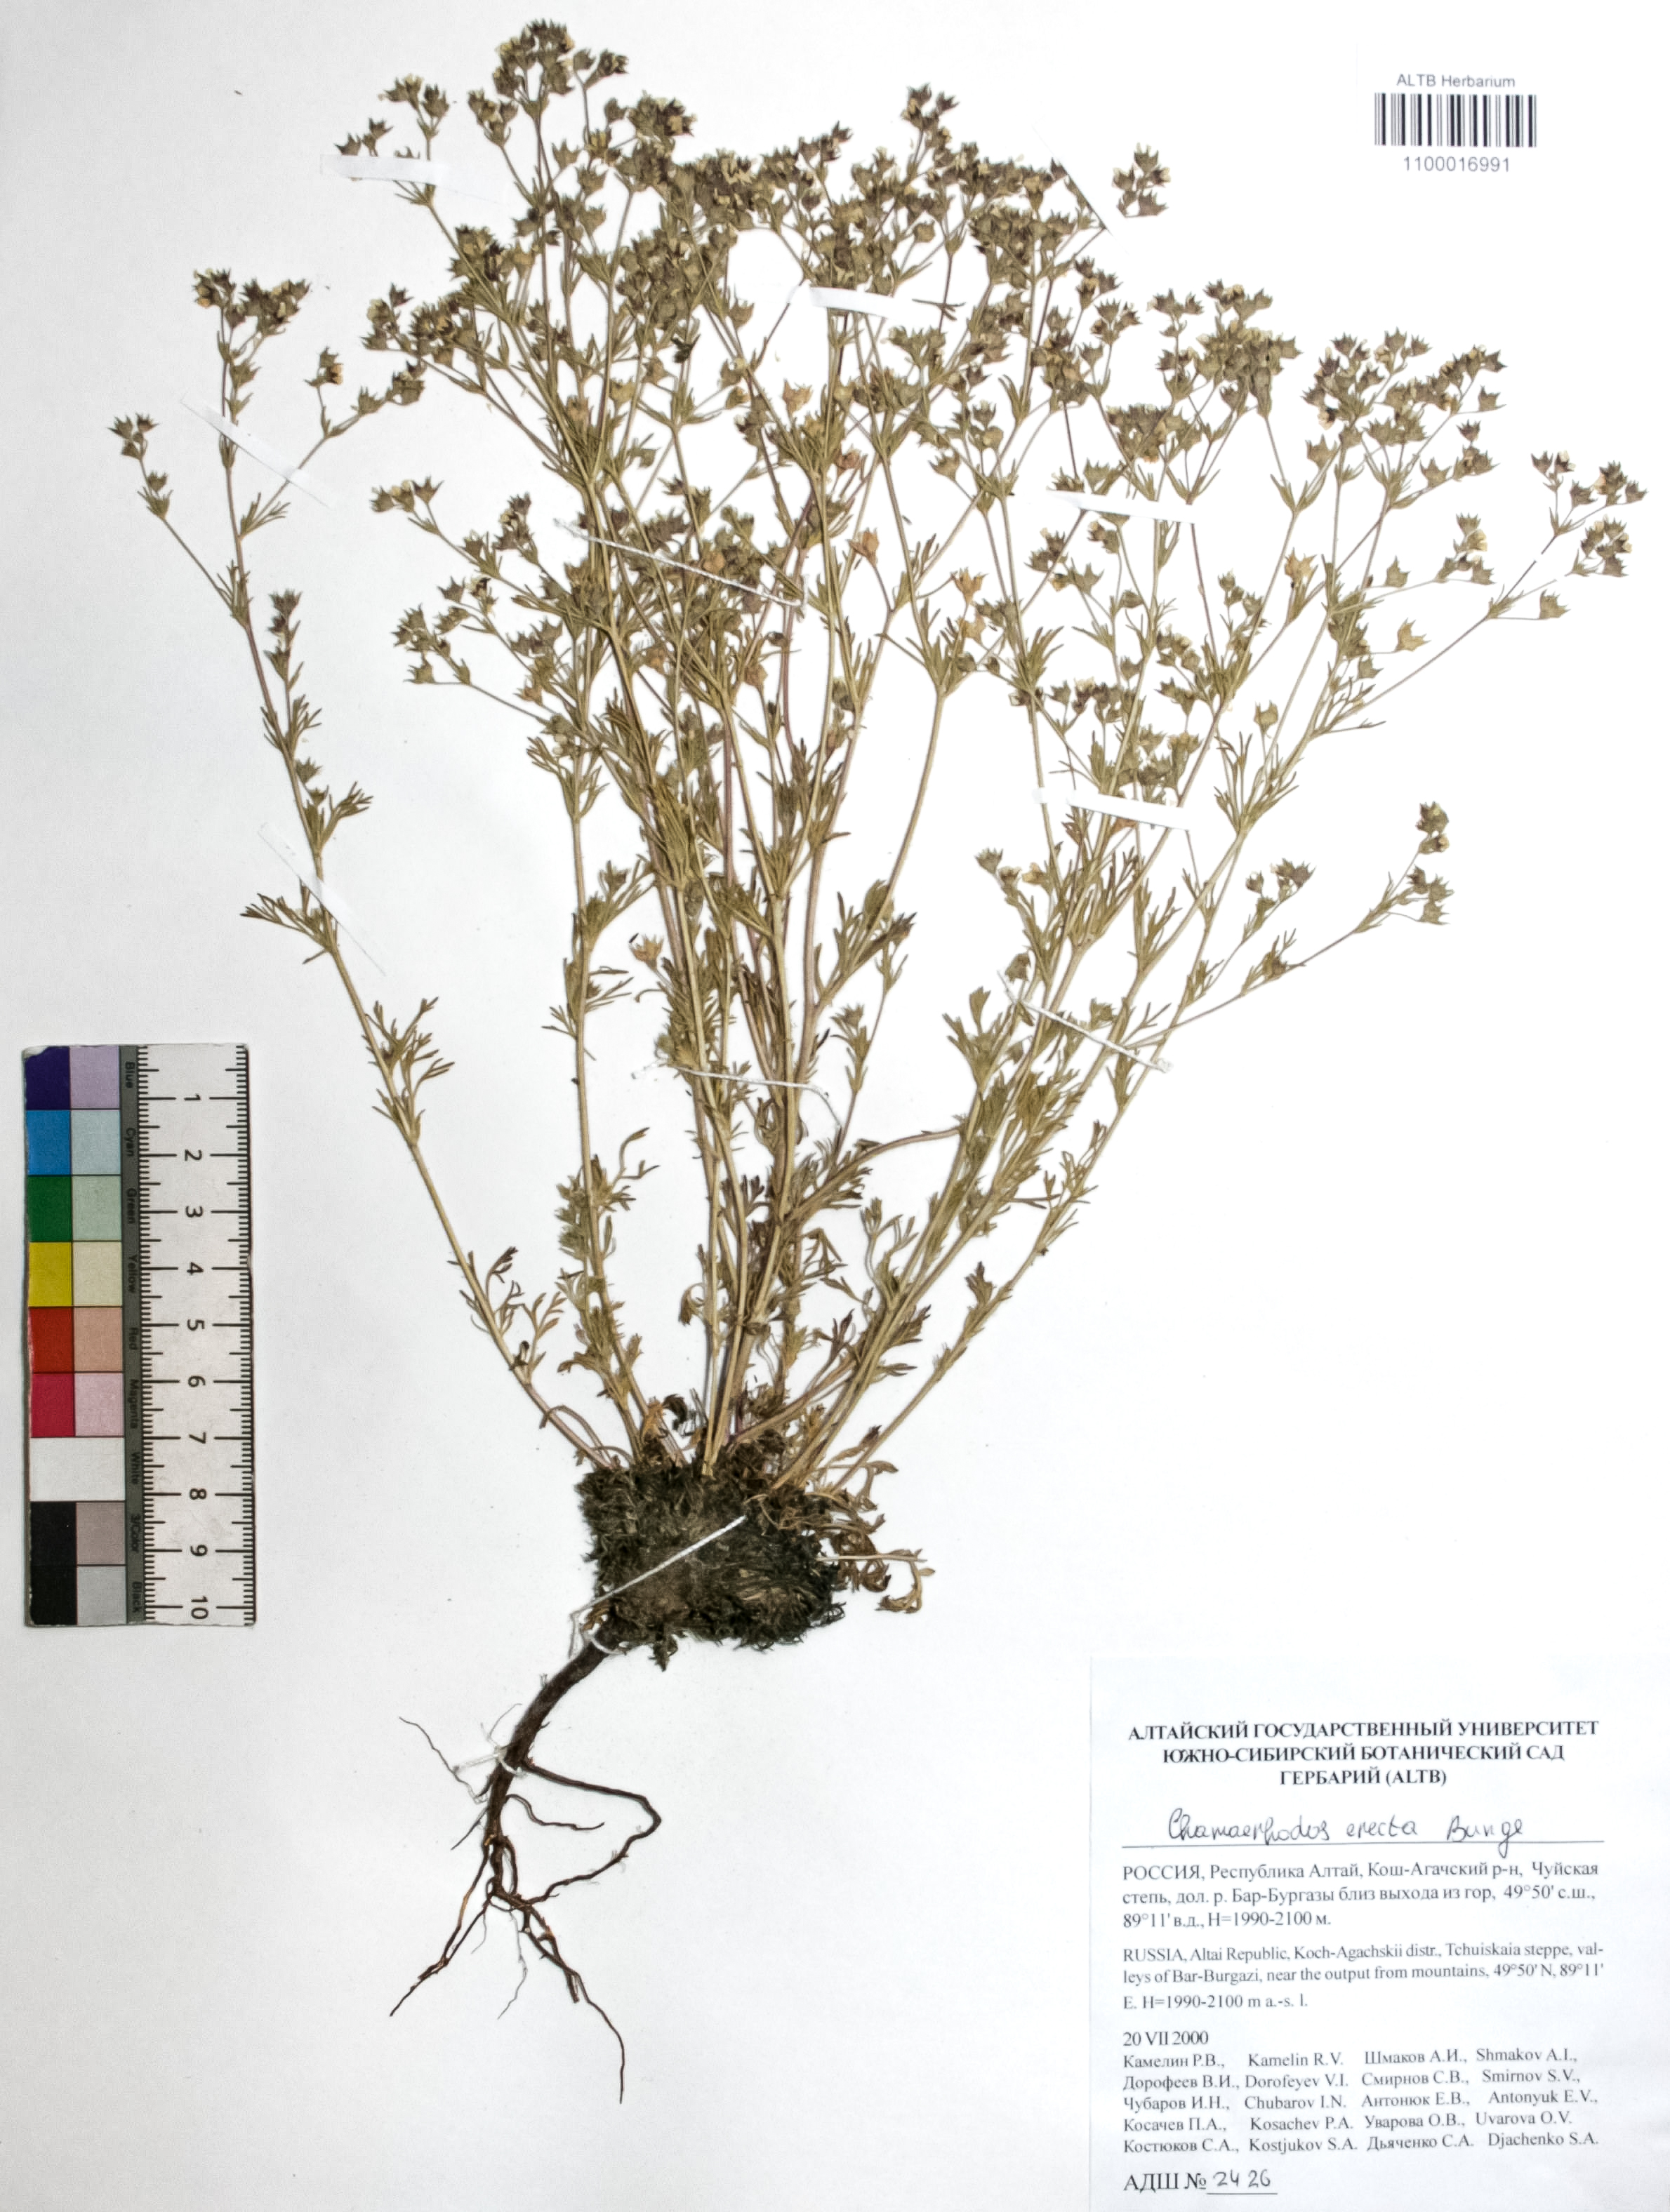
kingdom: Plantae
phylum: Tracheophyta
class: Magnoliopsida
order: Rosales
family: Rosaceae
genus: Chamaerhodos
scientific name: Chamaerhodos erecta
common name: American chamaerhodos
